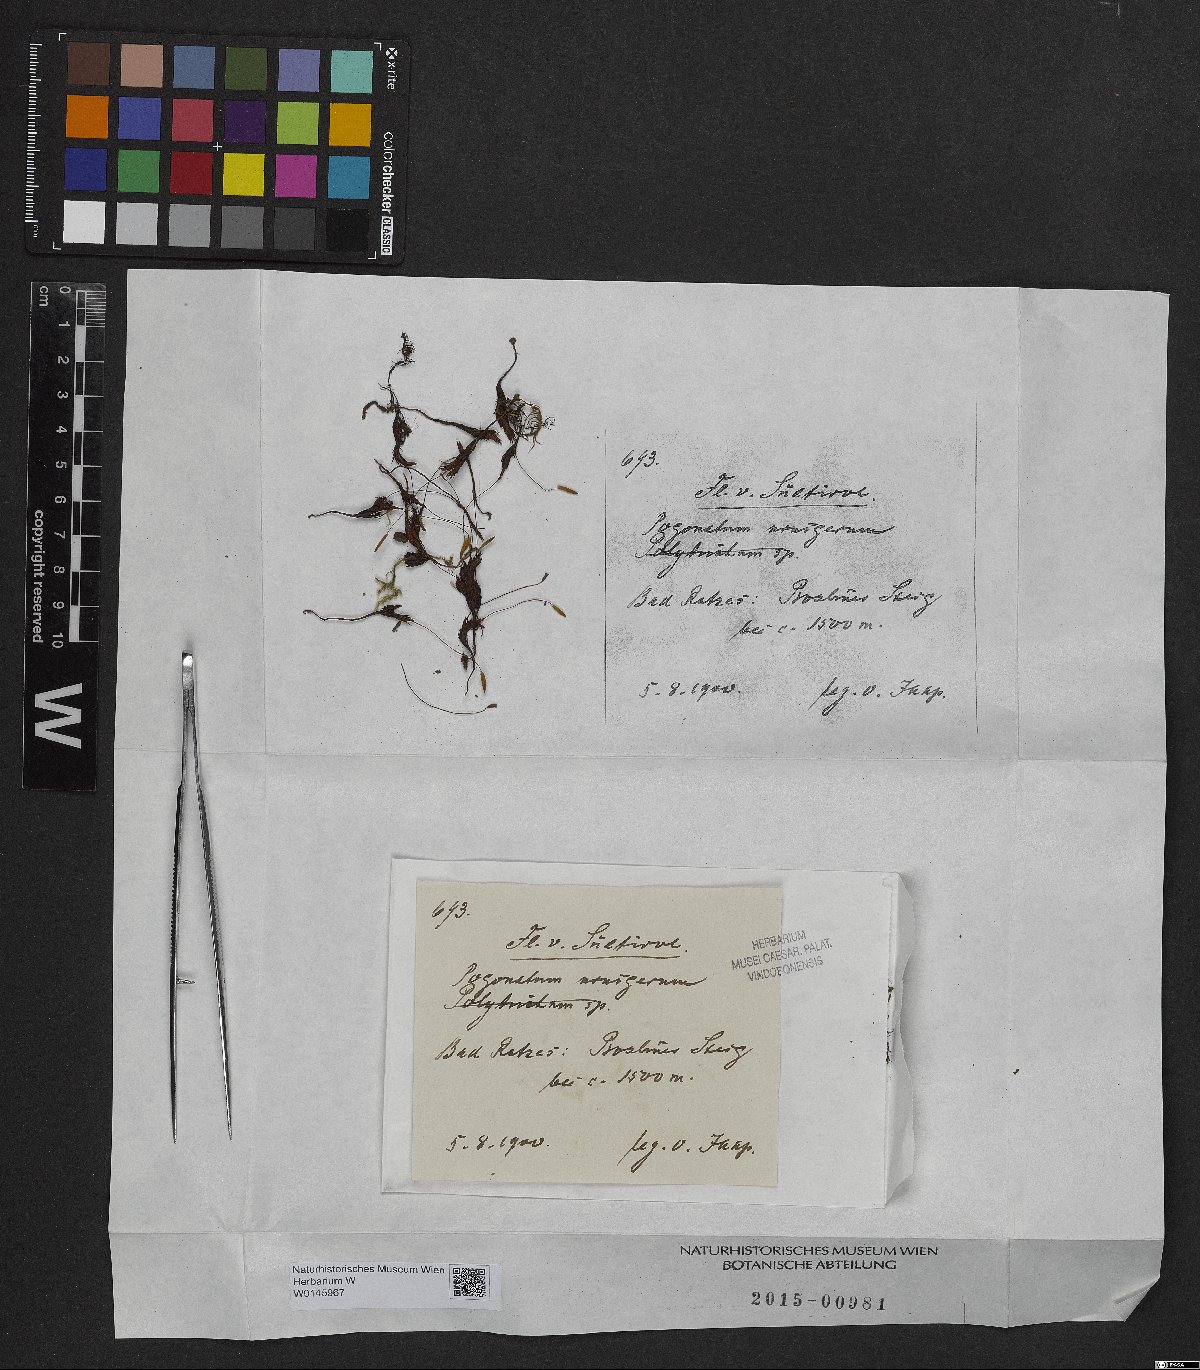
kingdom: Plantae
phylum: Bryophyta
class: Polytrichopsida
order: Polytrichales
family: Polytrichaceae
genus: Pogonatum
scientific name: Pogonatum urnigerum
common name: Urn hair moss
